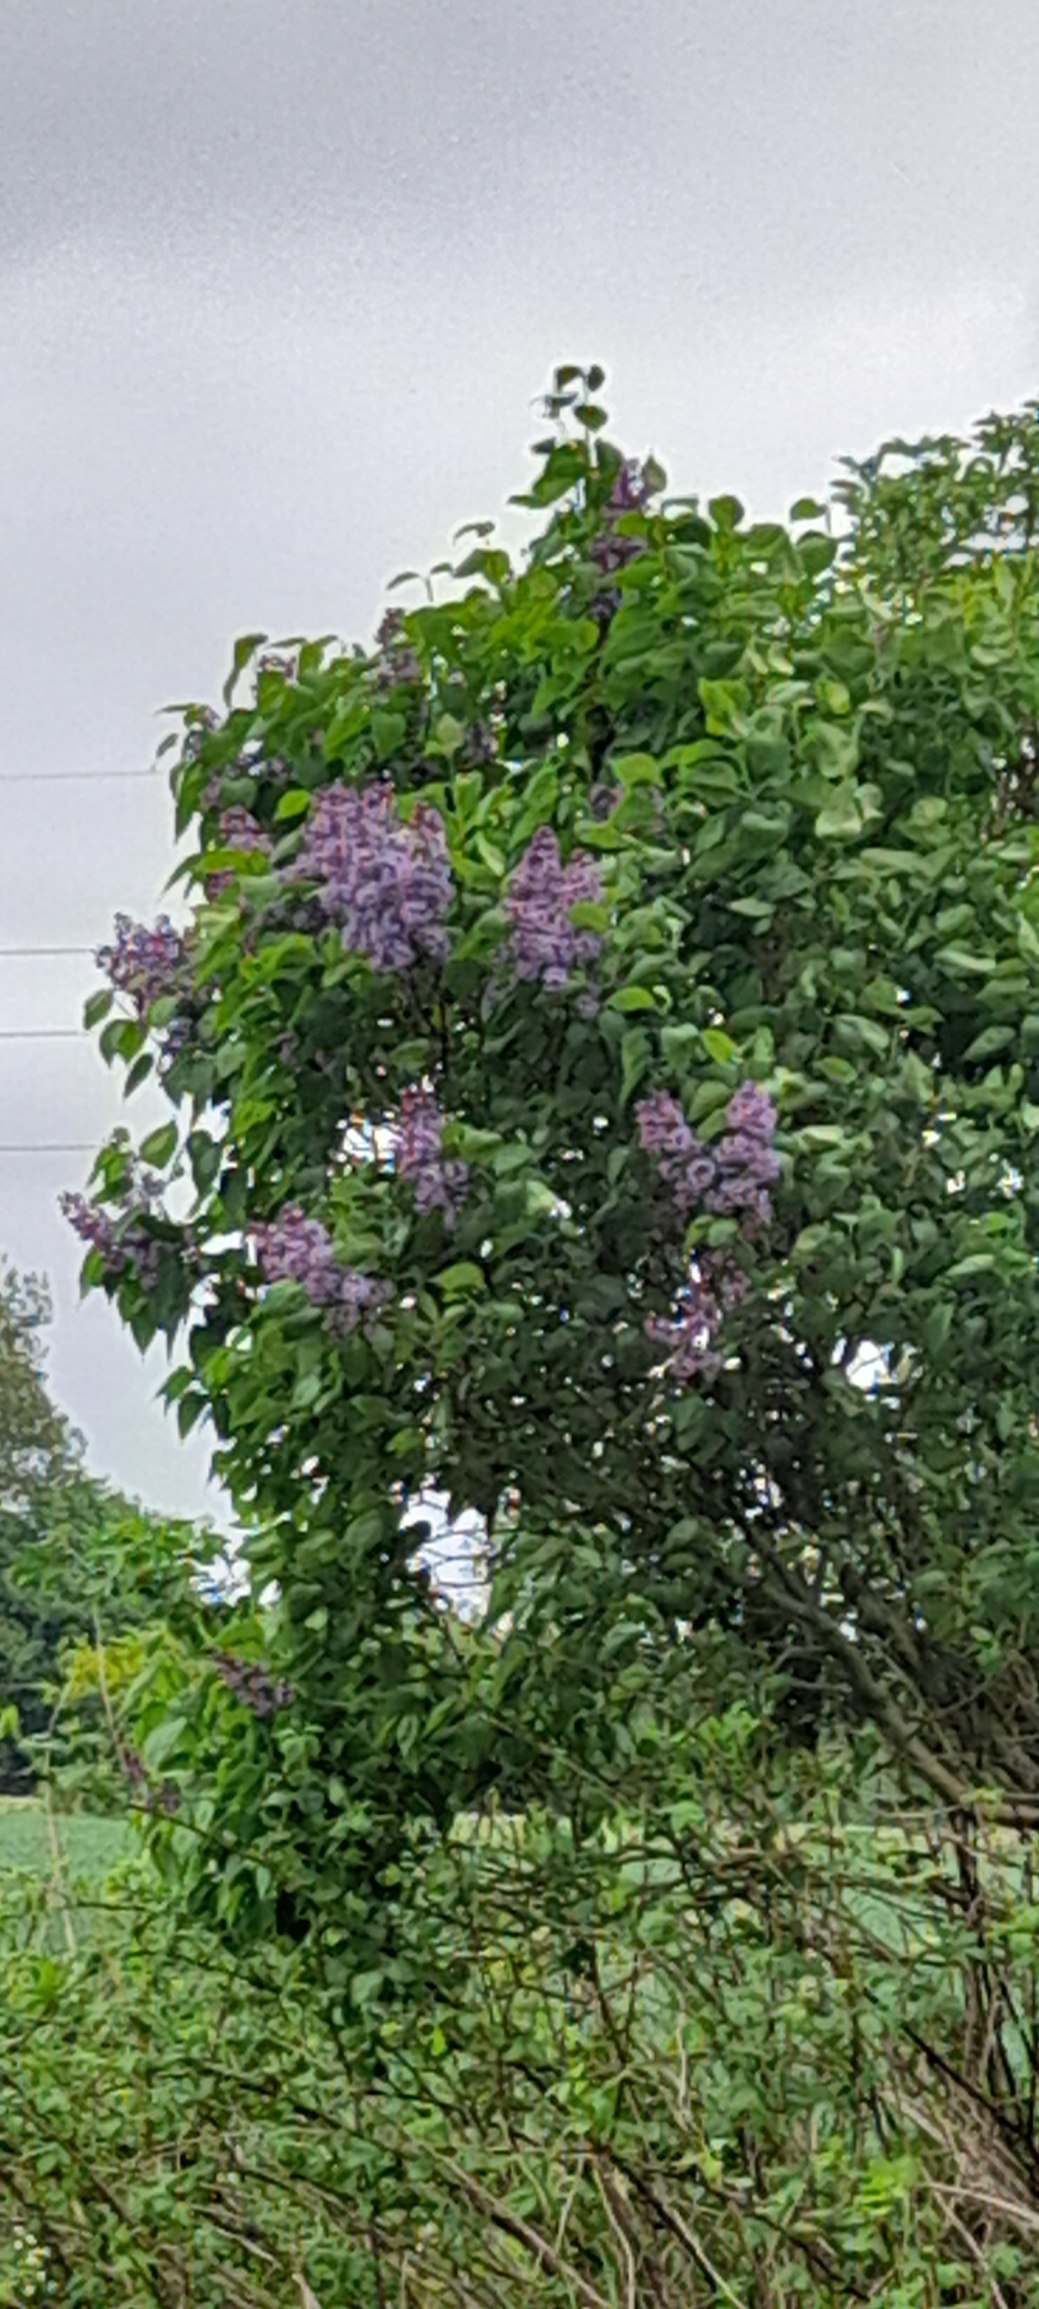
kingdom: Plantae
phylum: Tracheophyta
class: Magnoliopsida
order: Lamiales
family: Oleaceae
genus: Syringa
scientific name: Syringa vulgaris
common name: Syren
